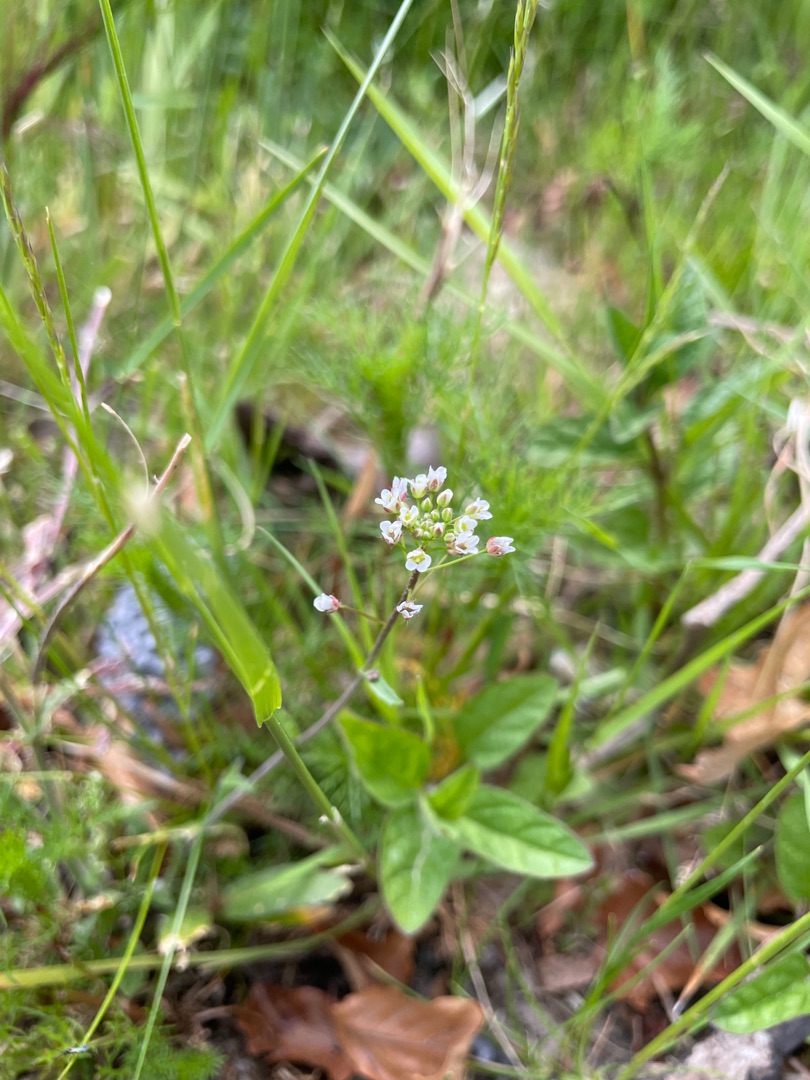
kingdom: Plantae
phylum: Tracheophyta
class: Magnoliopsida
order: Brassicales
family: Brassicaceae
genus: Capsella
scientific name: Capsella bursa-pastoris
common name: Hyrdetaske
